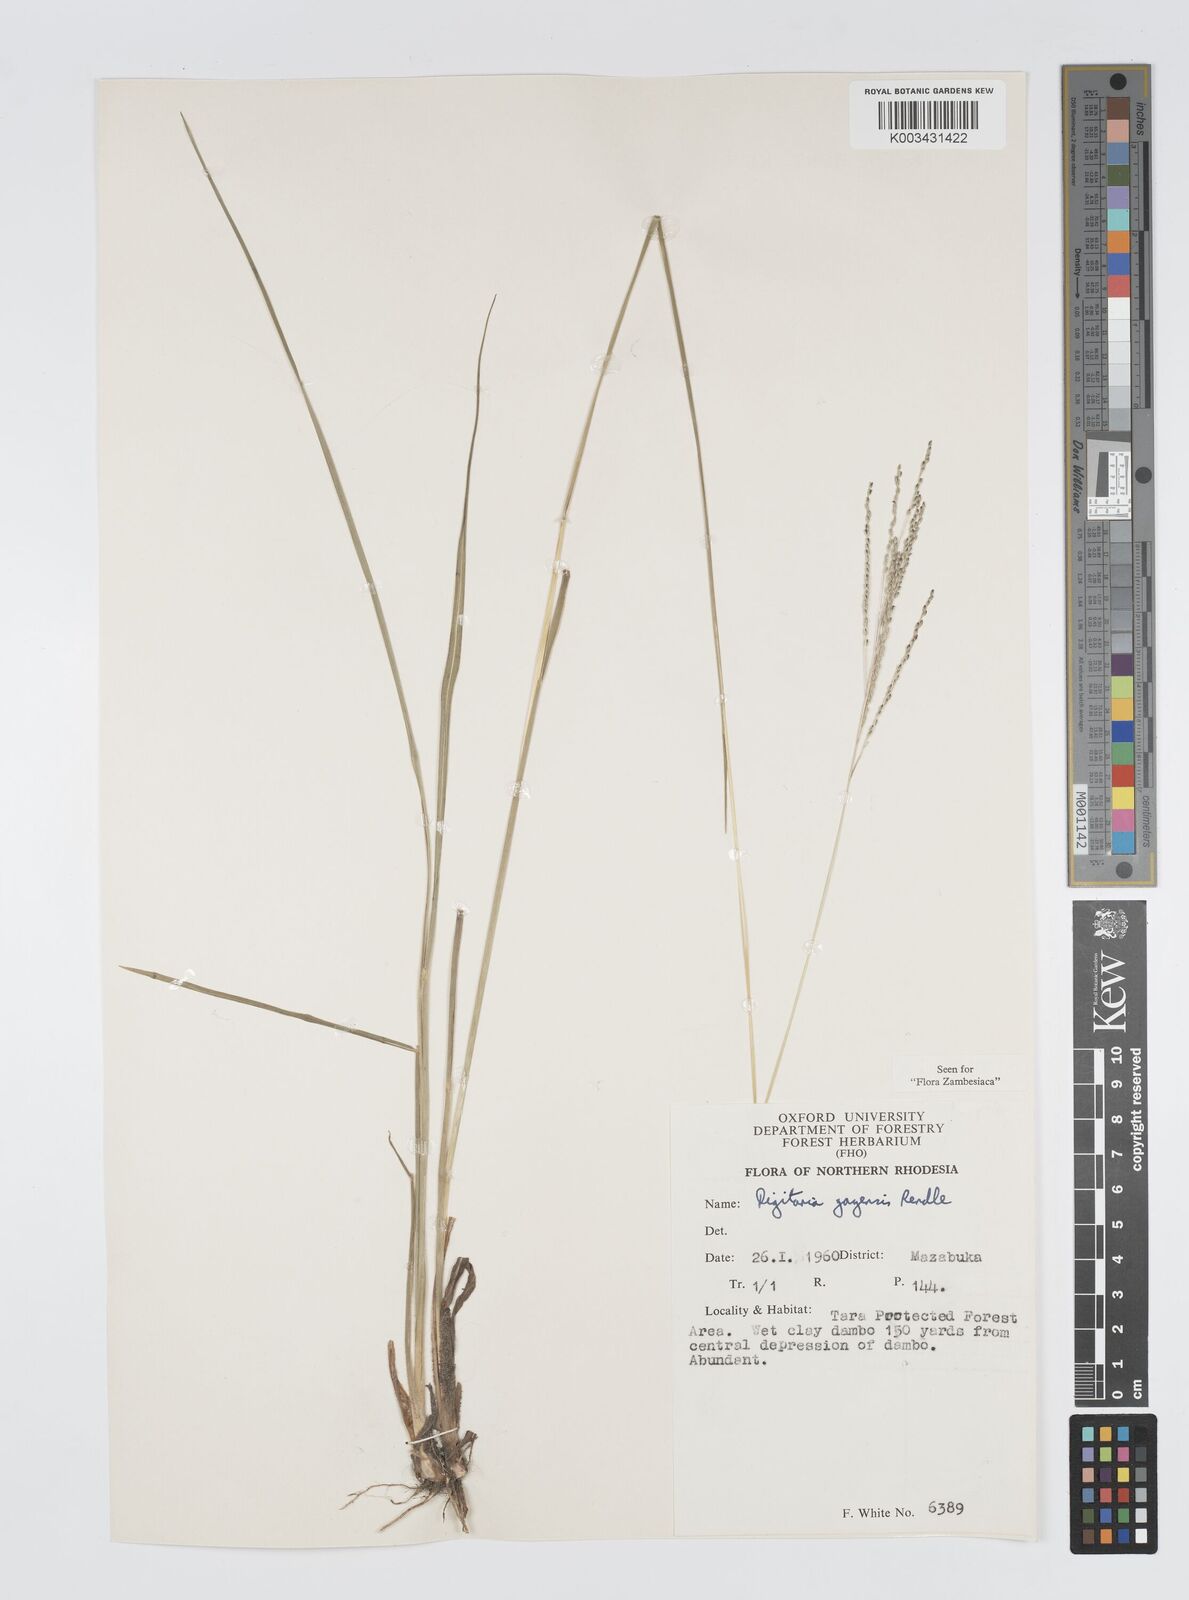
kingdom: Plantae
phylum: Tracheophyta
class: Liliopsida
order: Poales
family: Poaceae
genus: Digitaria
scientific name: Digitaria gazensis
